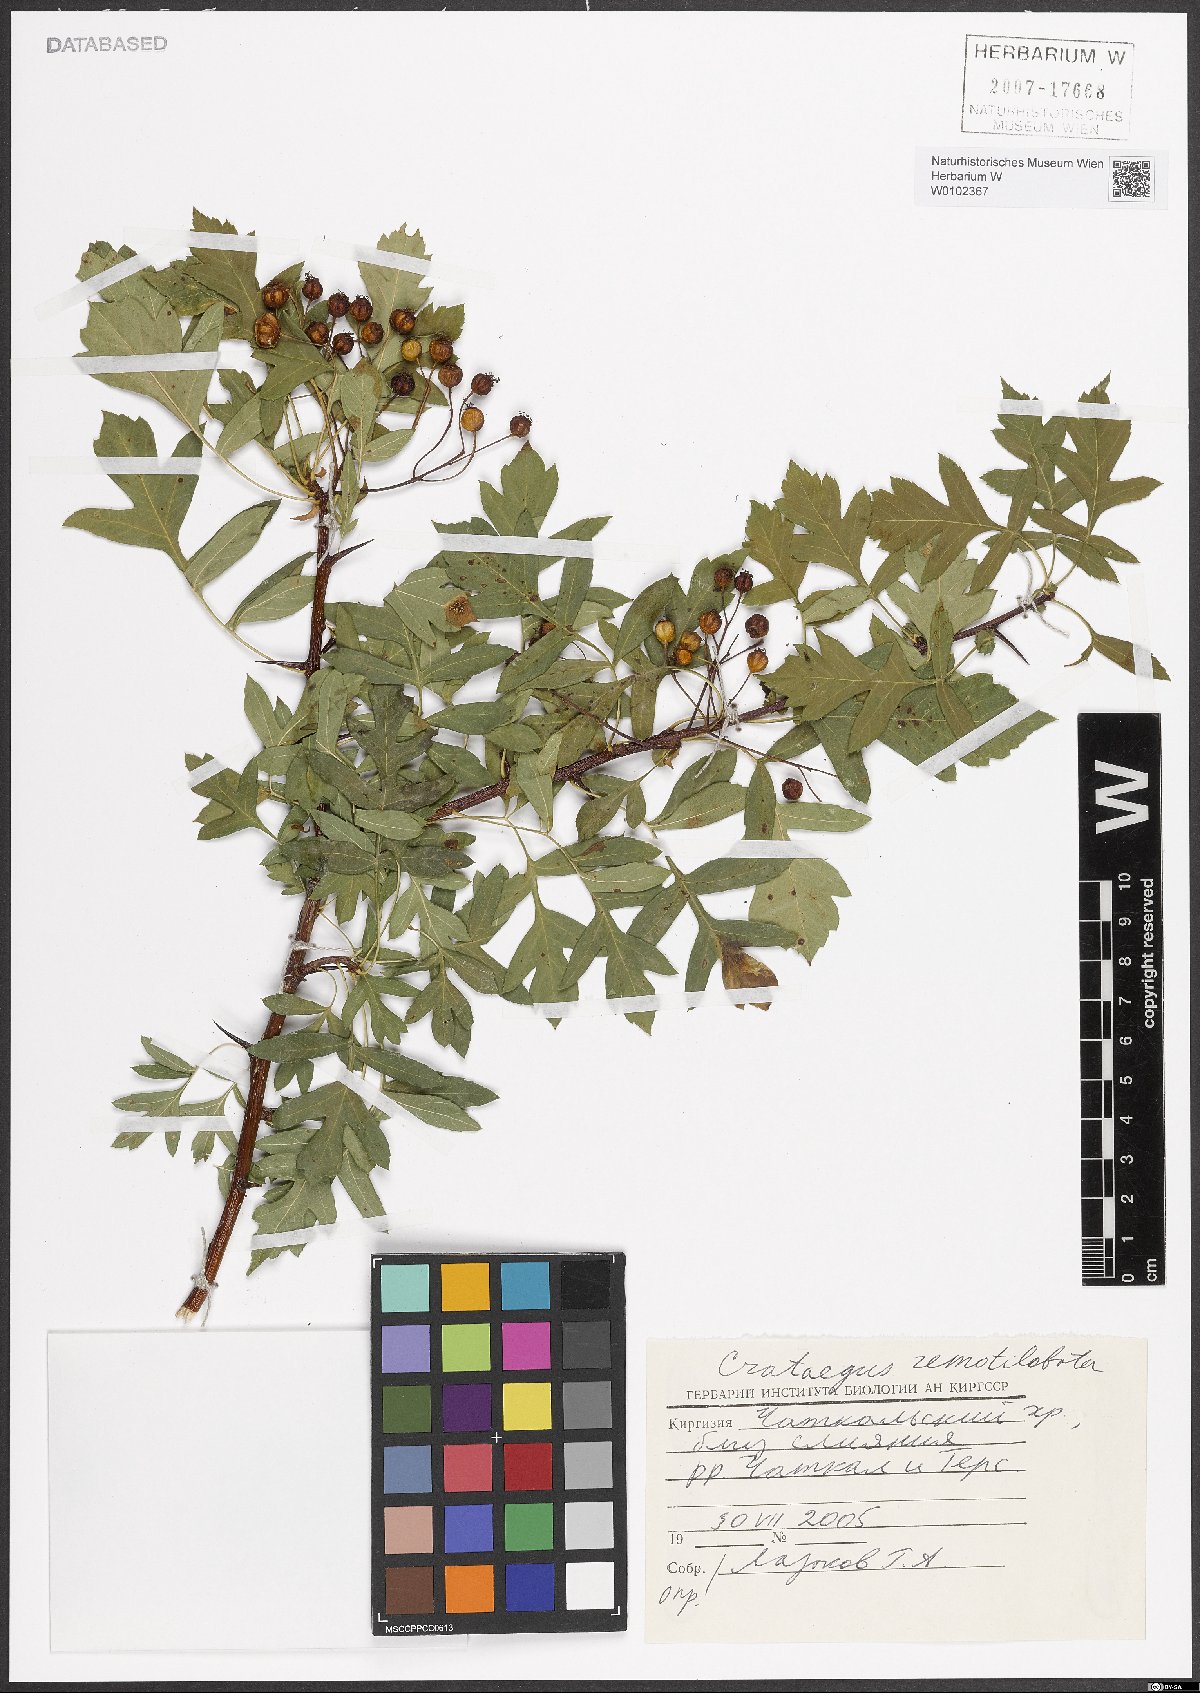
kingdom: Plantae
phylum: Tracheophyta
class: Magnoliopsida
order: Rosales
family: Rosaceae
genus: Crataegus
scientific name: Crataegus remotilobata
